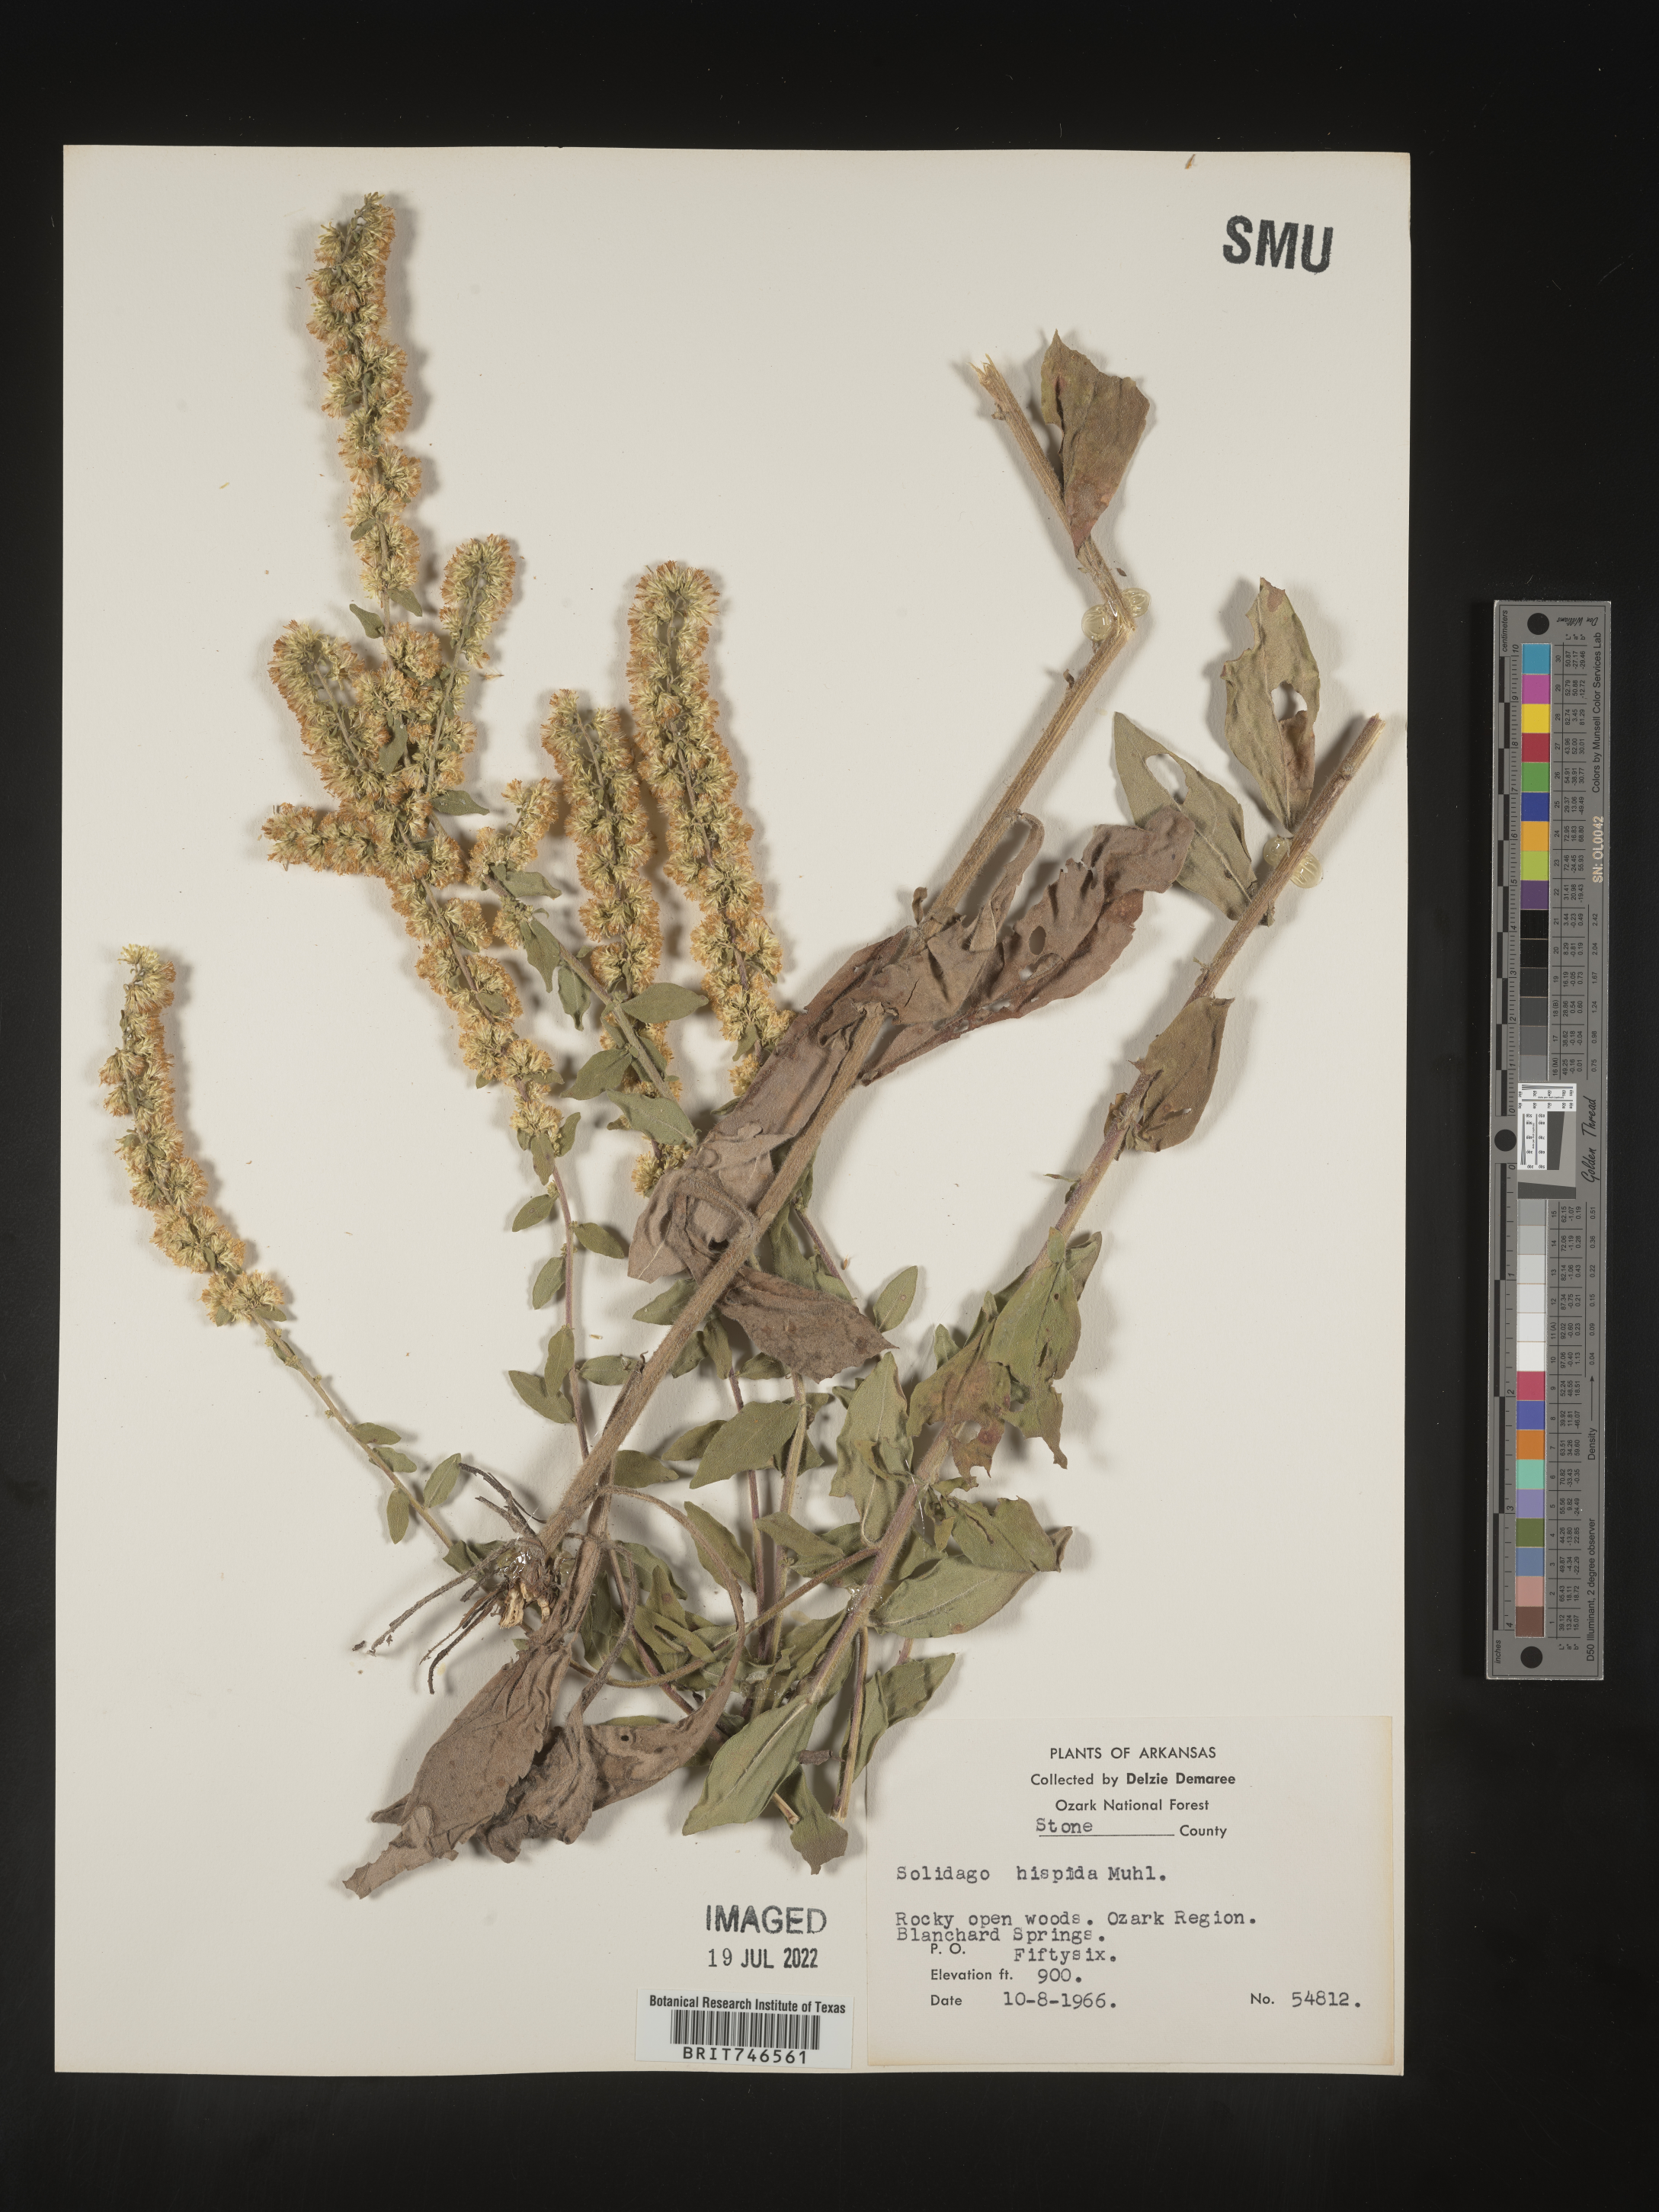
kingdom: Plantae
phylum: Tracheophyta
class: Magnoliopsida
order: Asterales
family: Asteraceae
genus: Solidago
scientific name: Solidago hispida
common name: Hairy goldenrod
